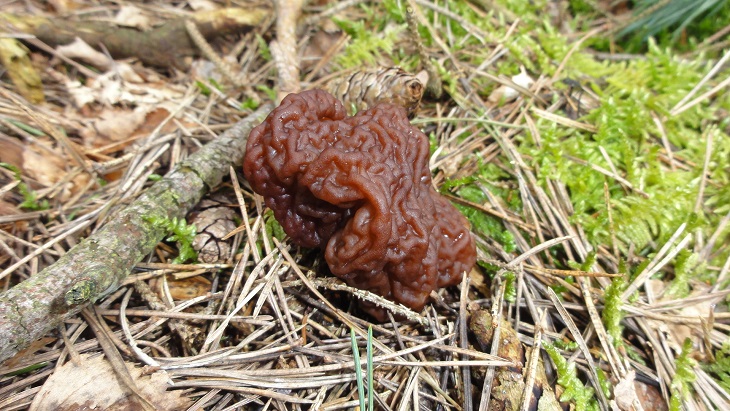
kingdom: Fungi
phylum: Ascomycota
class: Pezizomycetes
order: Pezizales
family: Discinaceae
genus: Gyromitra
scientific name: Gyromitra esculenta
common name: ægte stenmorkel
